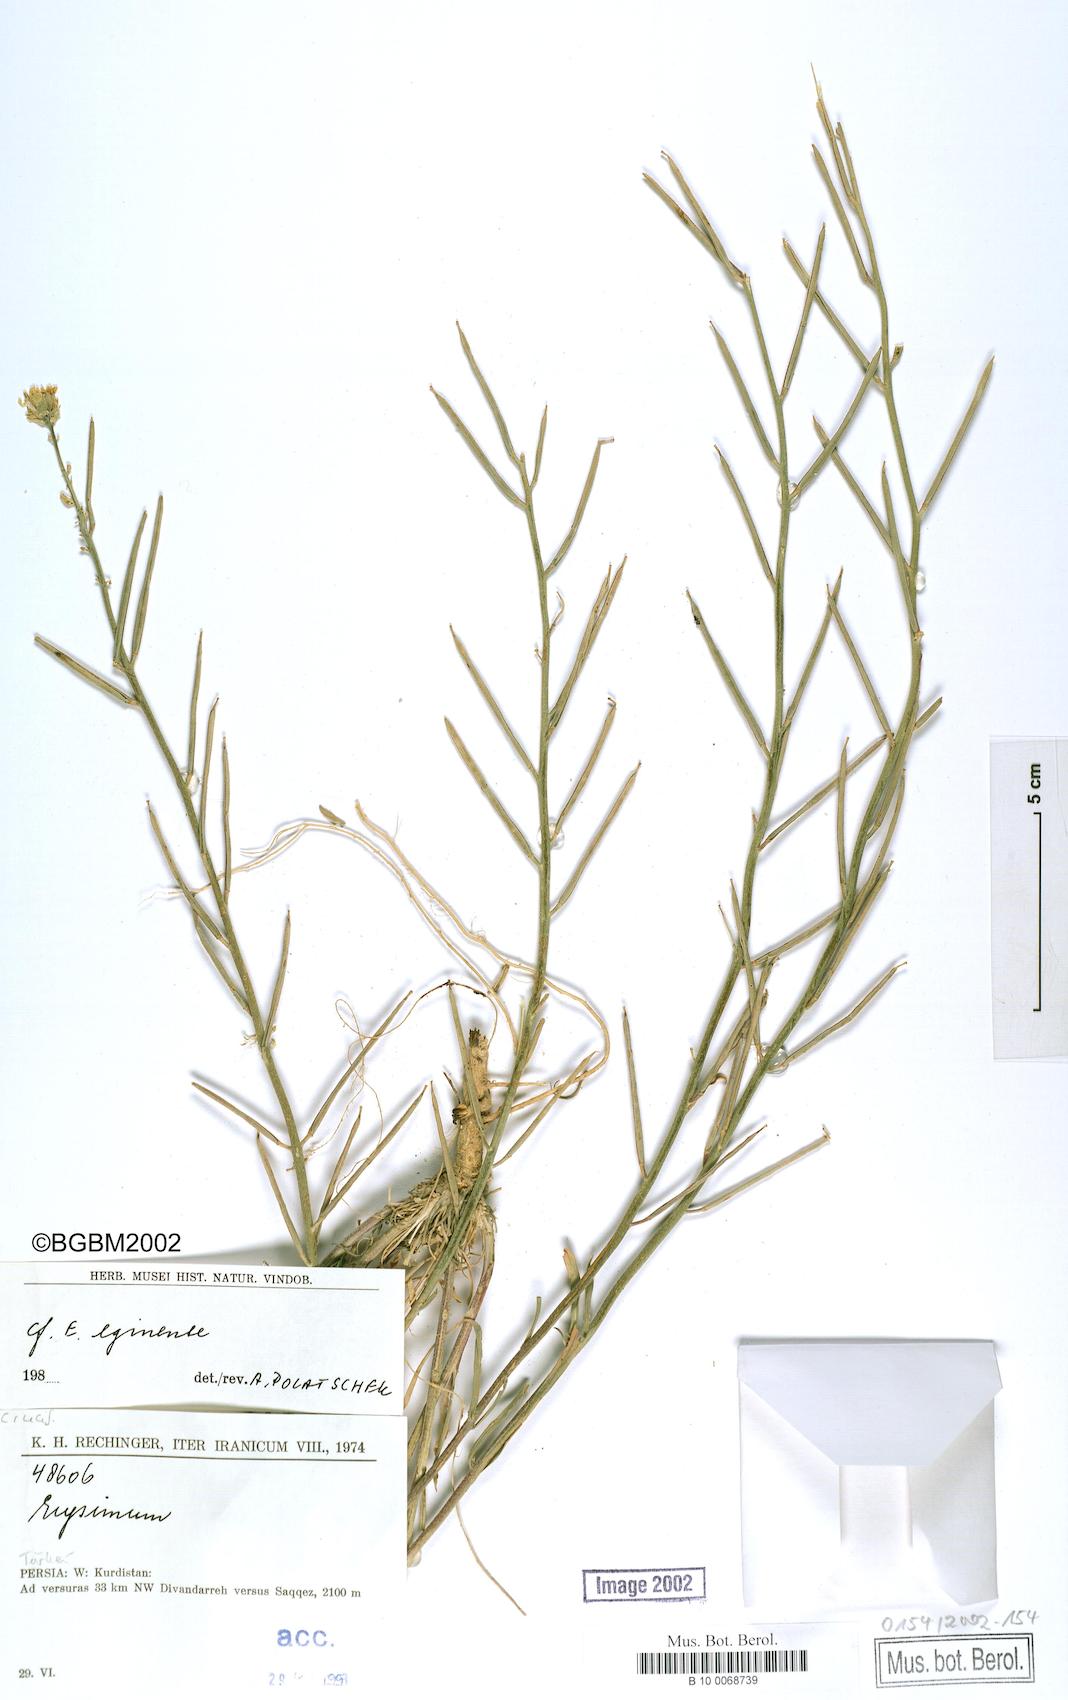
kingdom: Plantae
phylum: Tracheophyta
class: Magnoliopsida
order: Brassicales
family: Brassicaceae
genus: Erysimum
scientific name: Erysimum smyrnaeum
